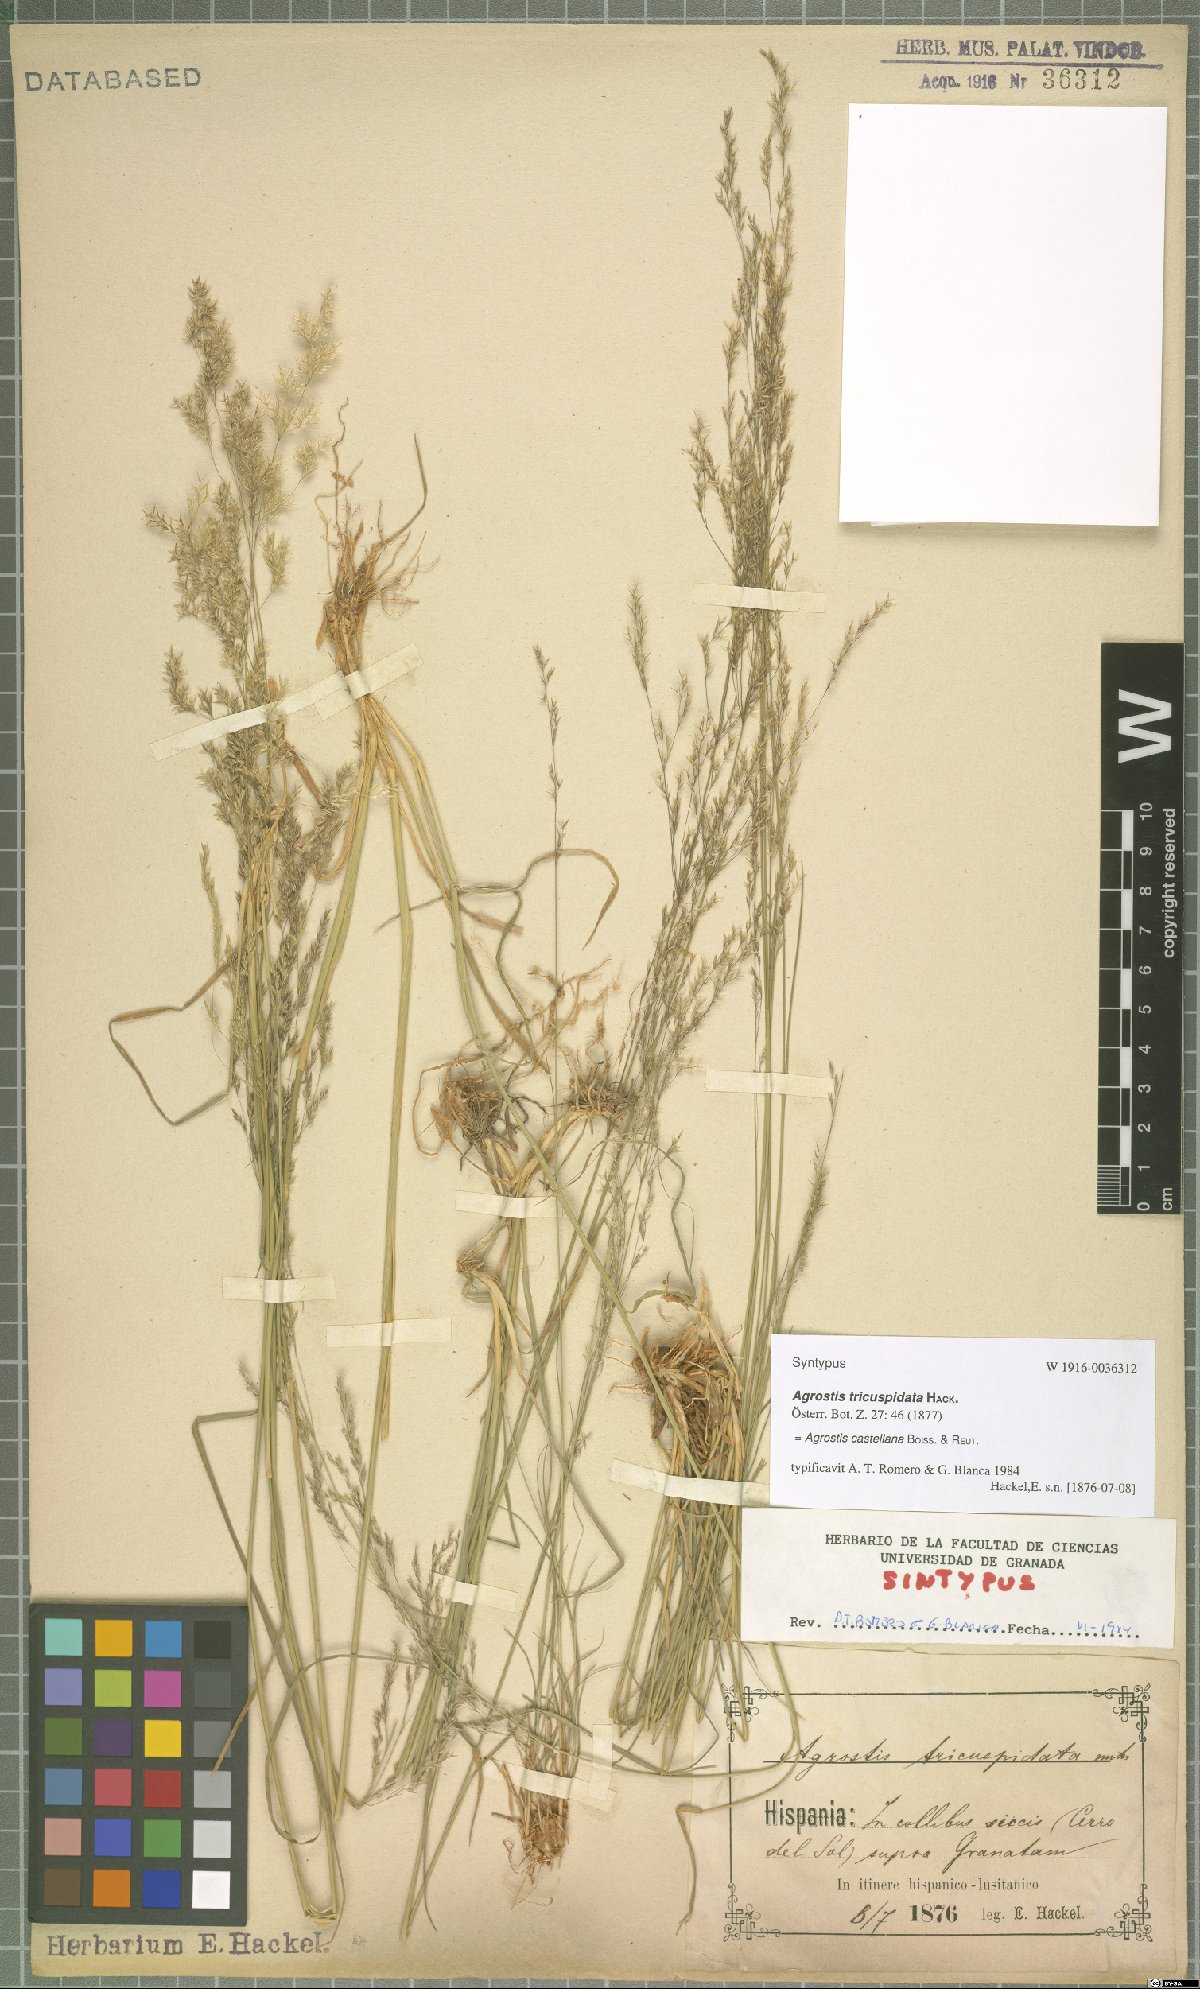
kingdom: Plantae
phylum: Tracheophyta
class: Liliopsida
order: Poales
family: Poaceae
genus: Agrostis
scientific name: Agrostis castellana
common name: Highland bent
